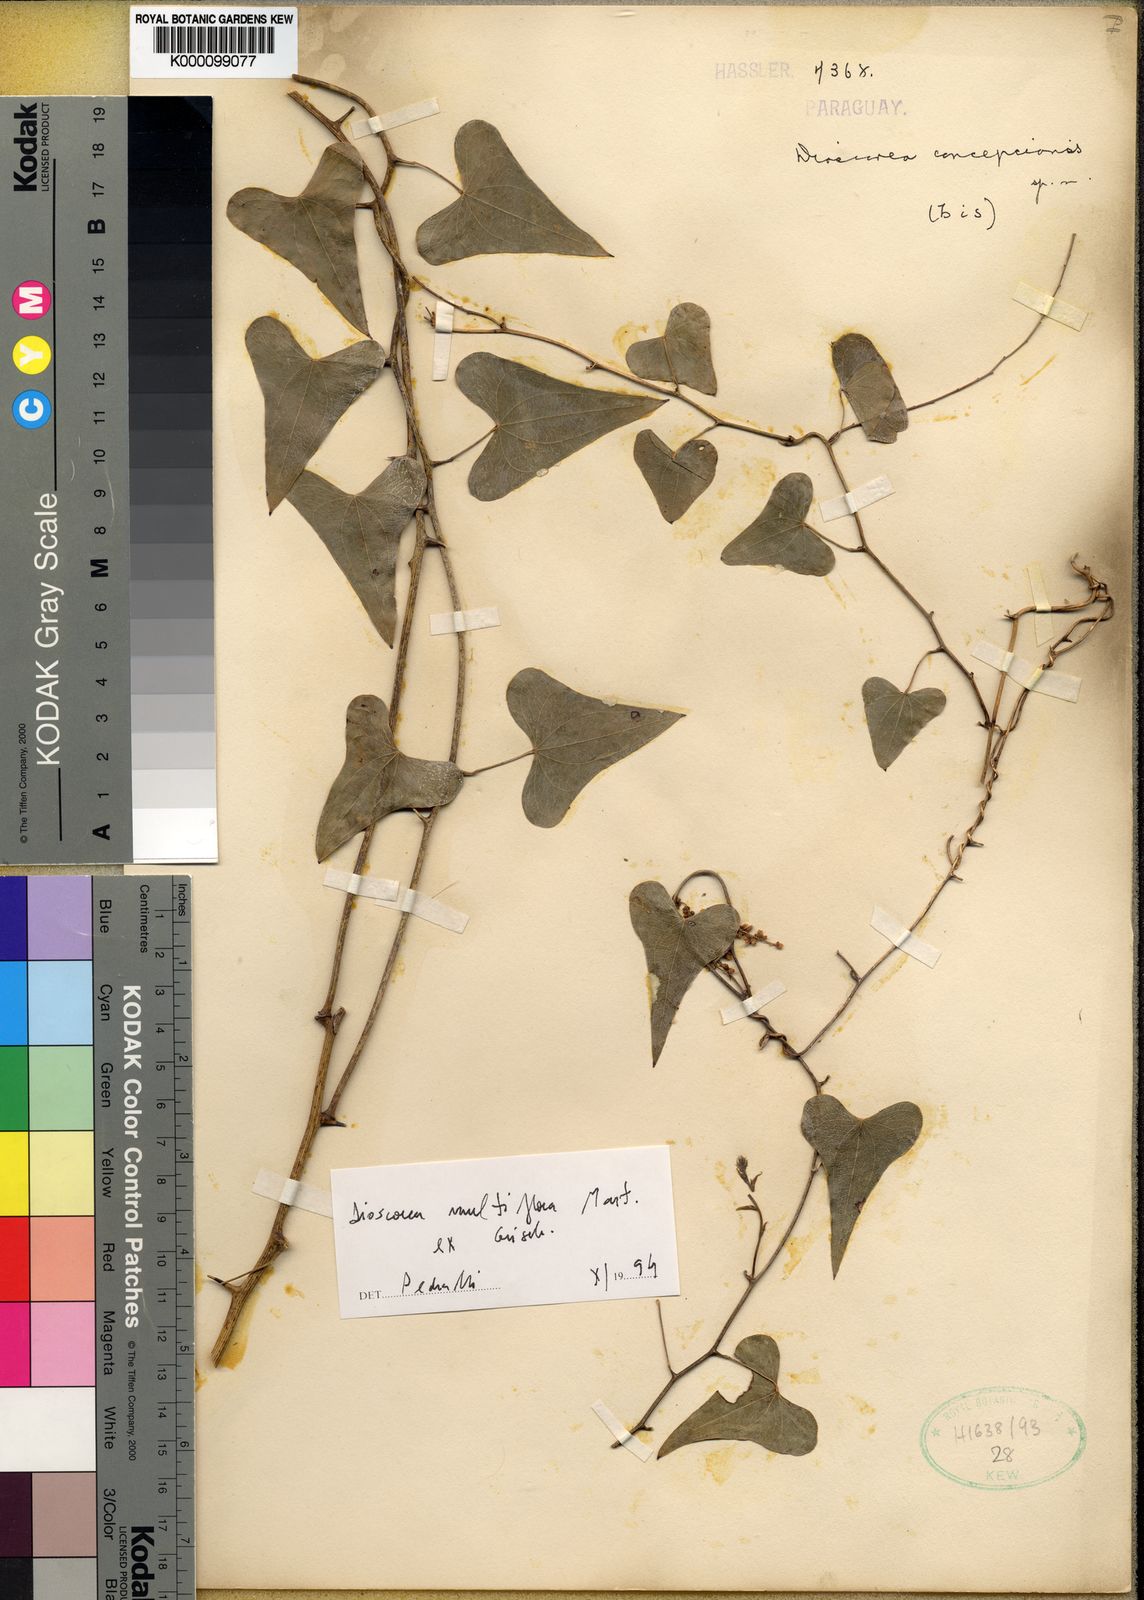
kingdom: Plantae
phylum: Tracheophyta
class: Liliopsida
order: Dioscoreales
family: Dioscoreaceae
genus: Dioscorea
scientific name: Dioscorea multiflora
